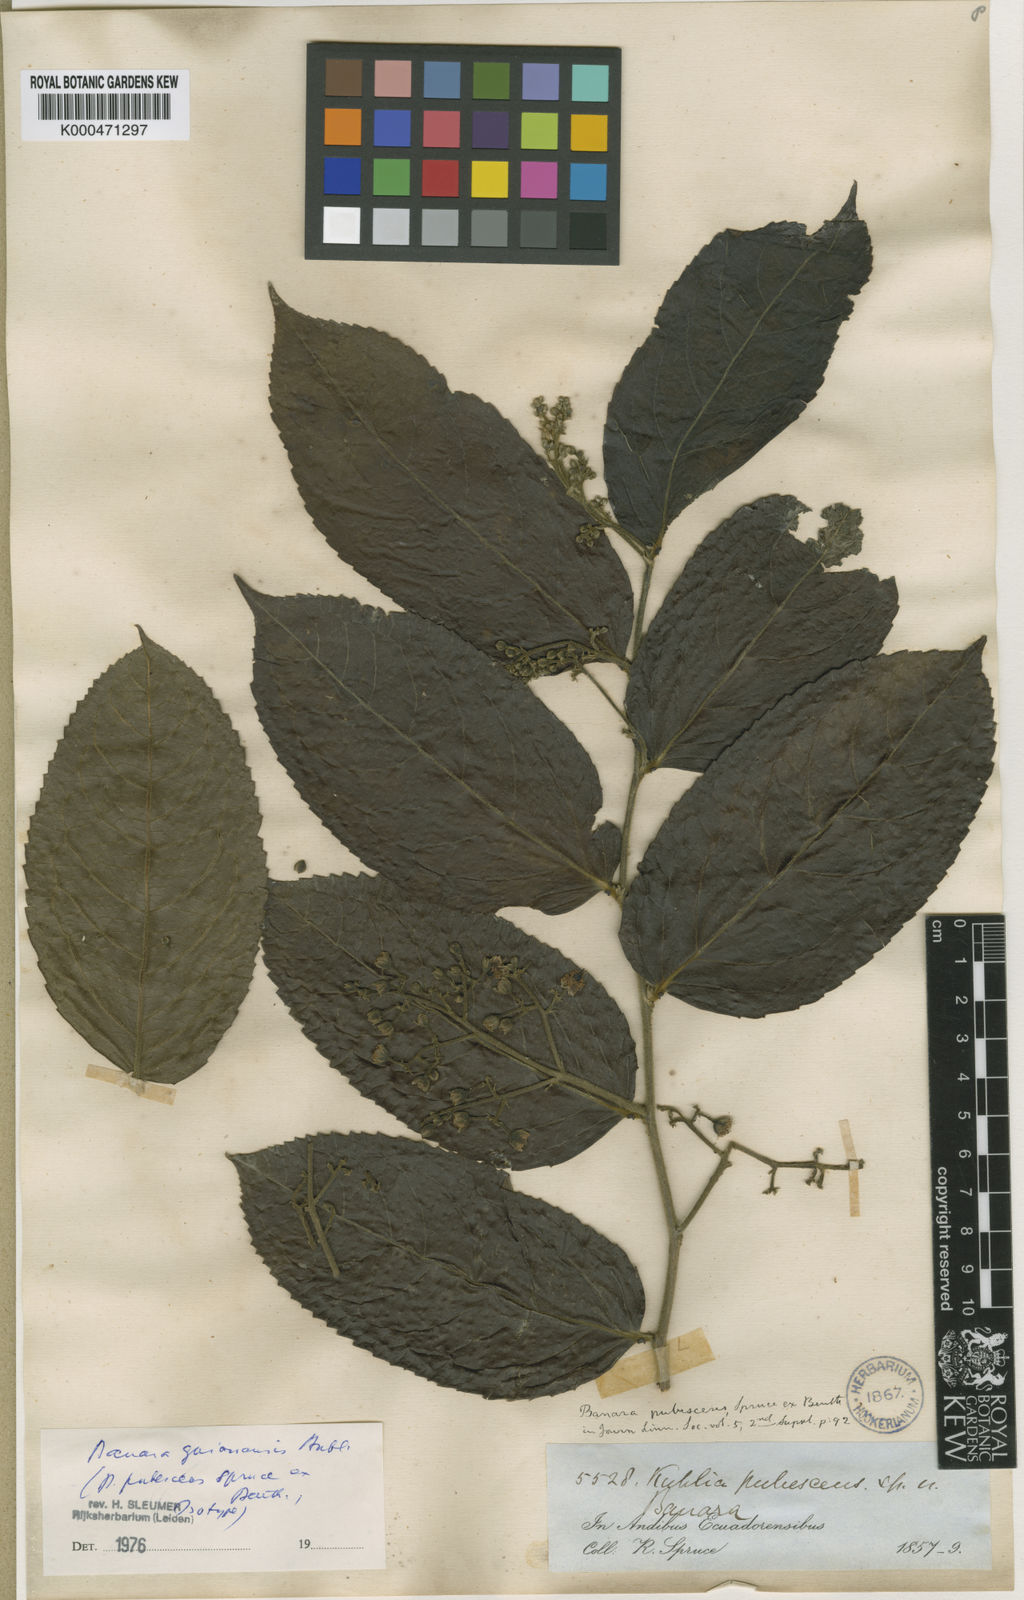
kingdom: Plantae
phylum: Tracheophyta
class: Magnoliopsida
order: Malpighiales
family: Salicaceae
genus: Banara
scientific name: Banara guianensis
